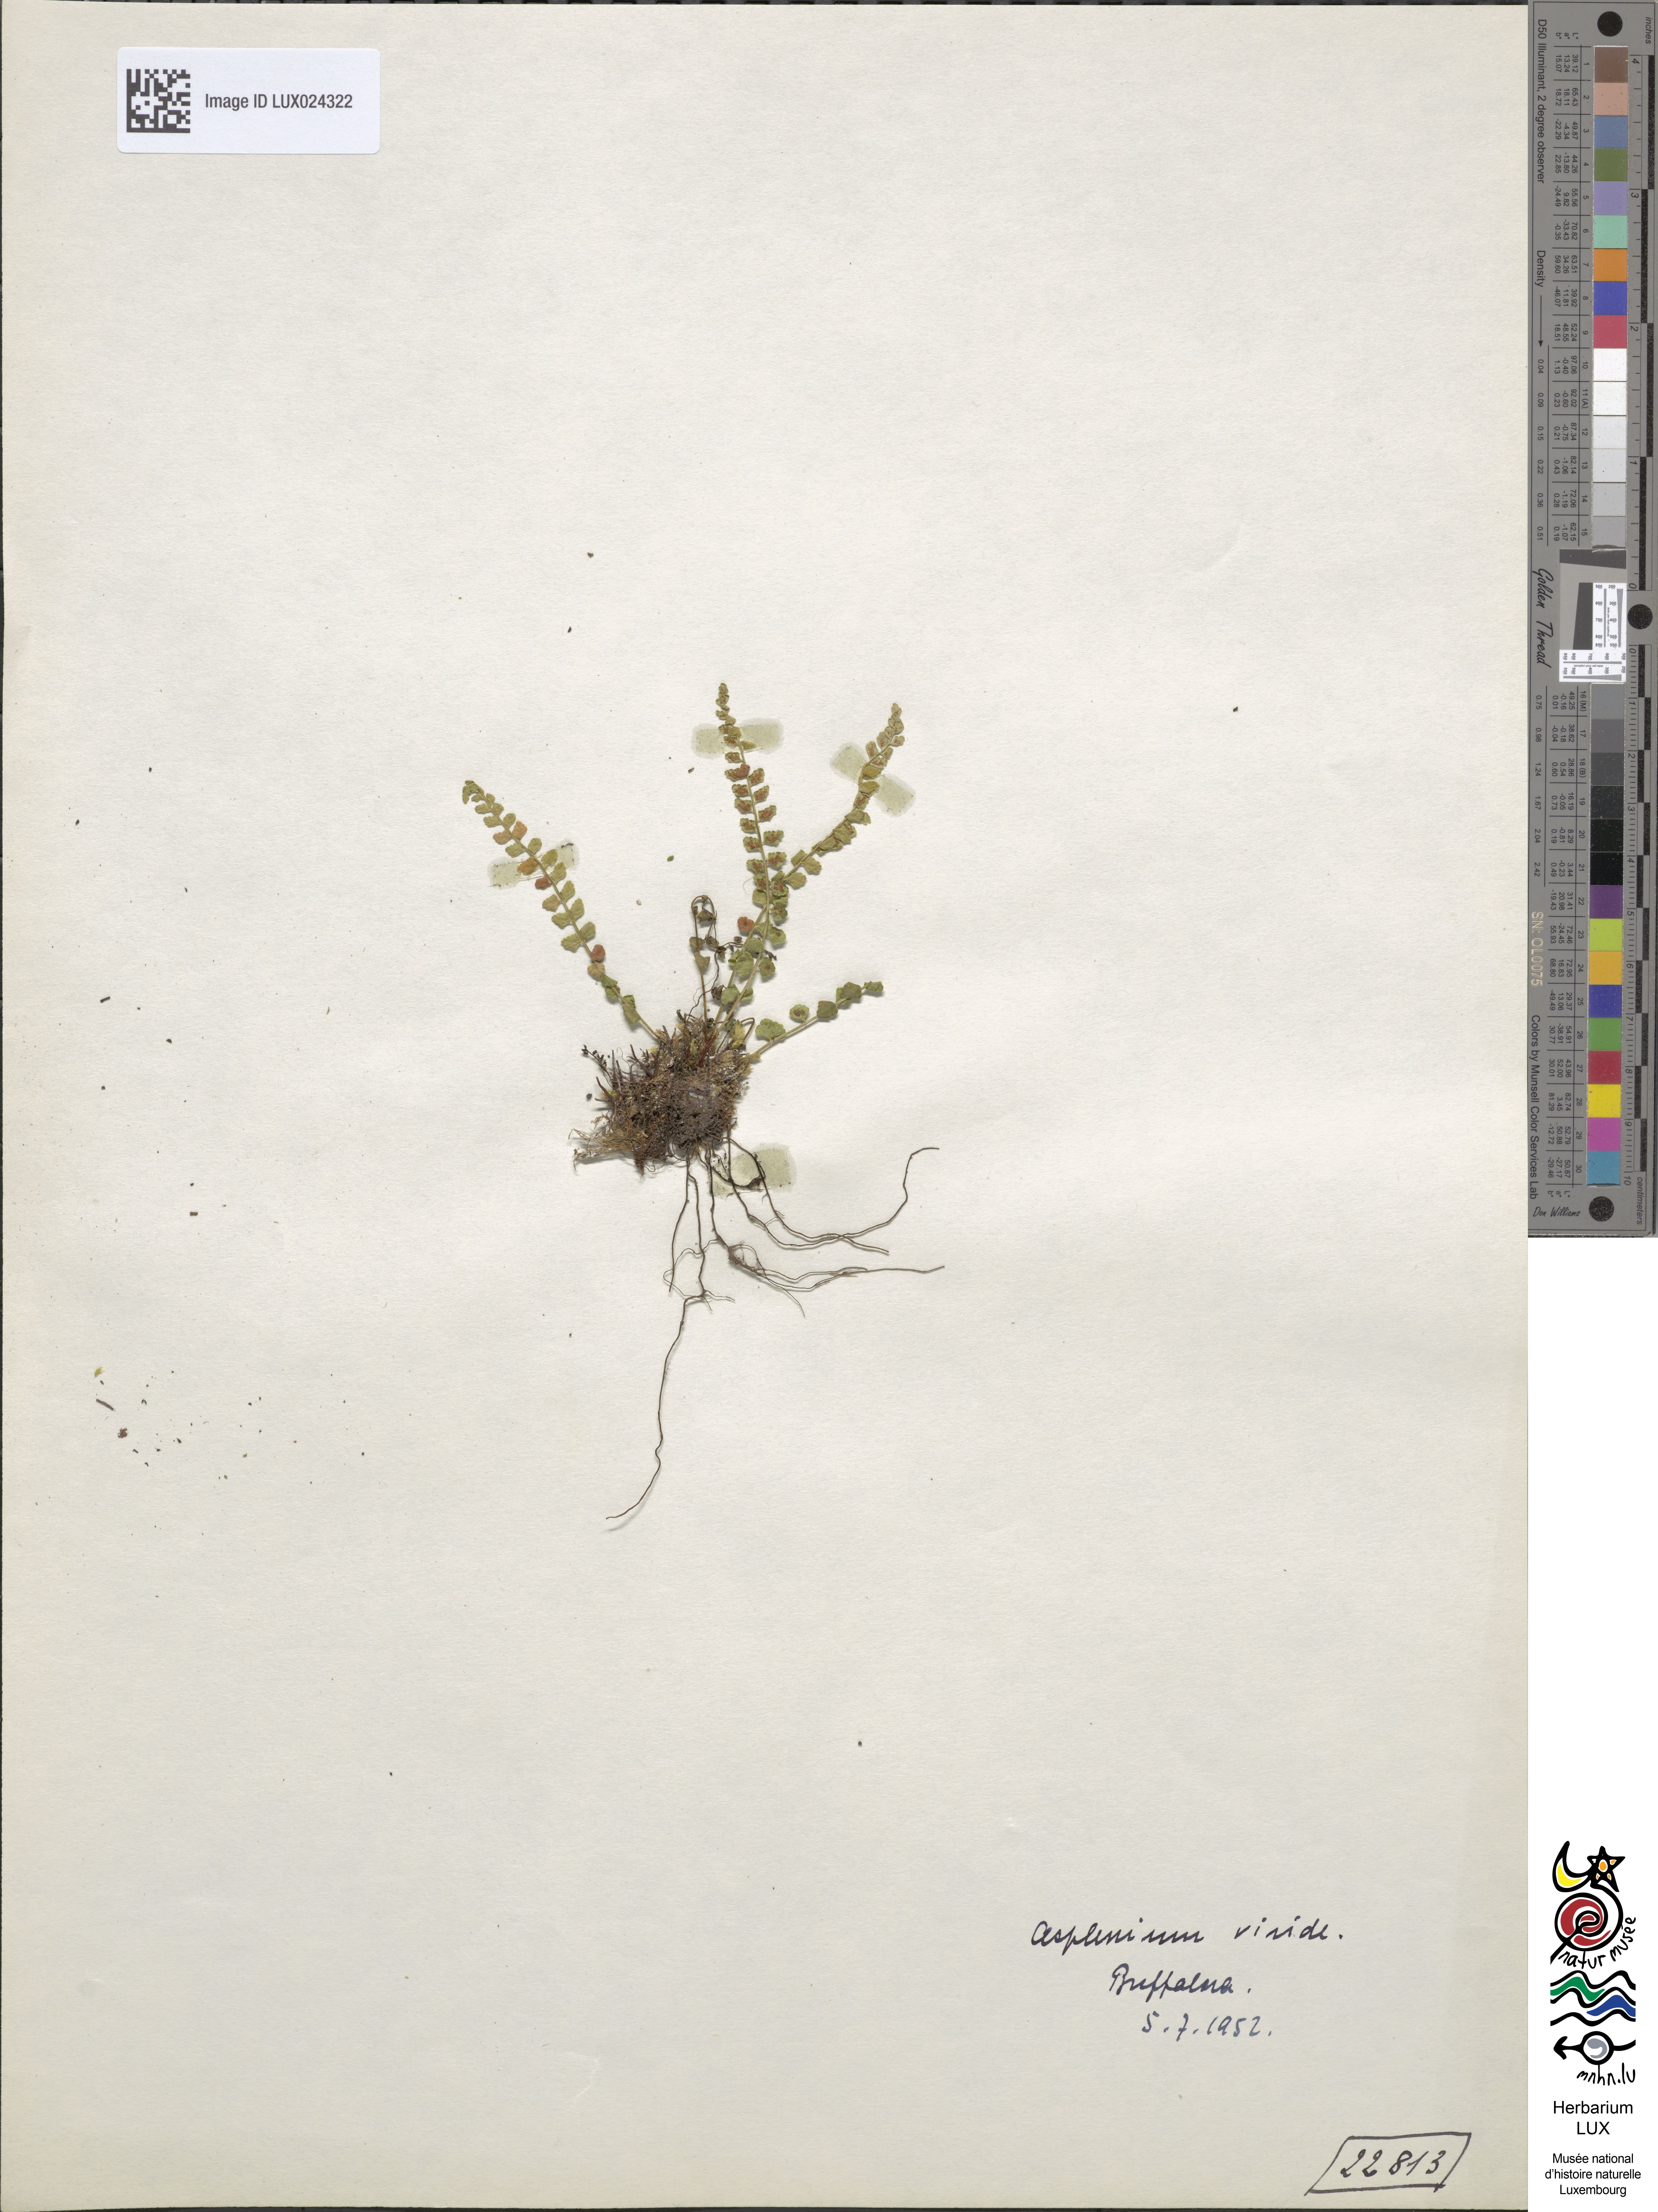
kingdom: Plantae
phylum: Tracheophyta
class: Polypodiopsida
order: Polypodiales
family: Aspleniaceae
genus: Asplenium
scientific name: Asplenium viride
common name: Green spleenwort
